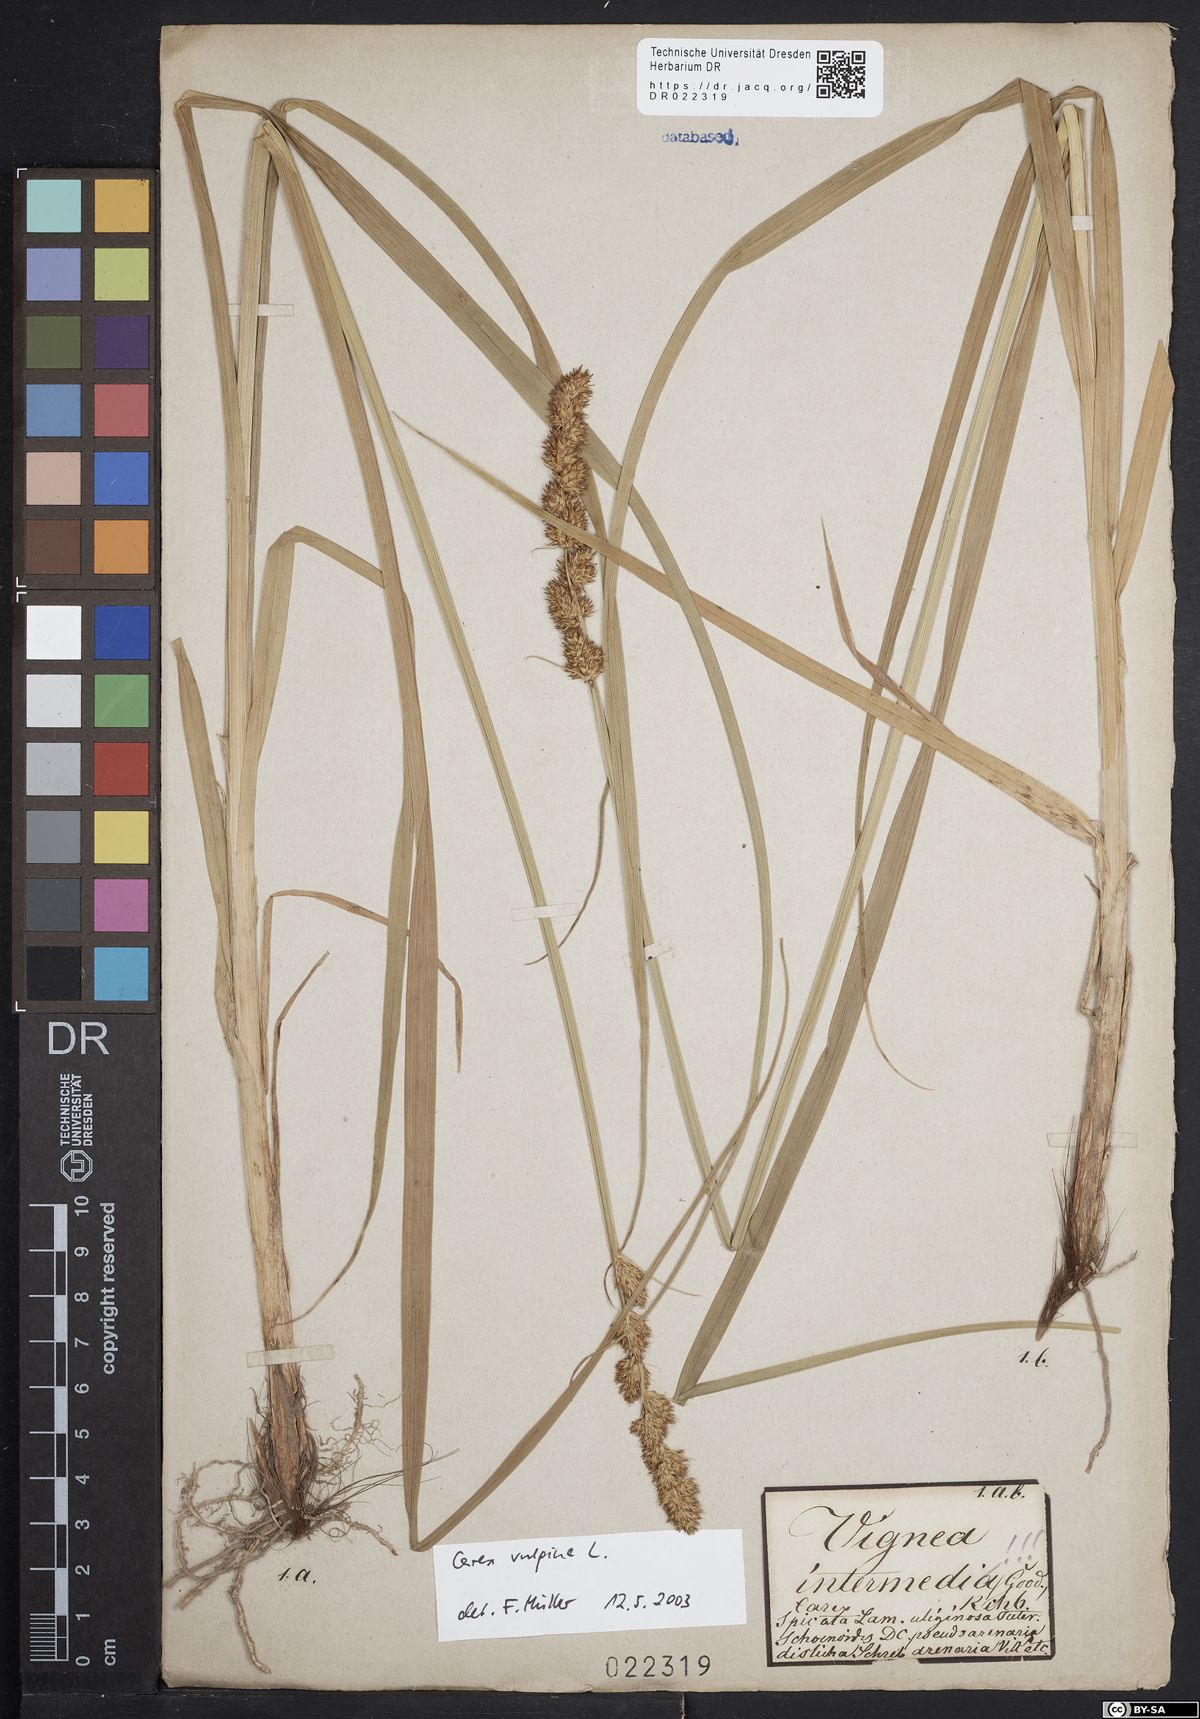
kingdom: Plantae
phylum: Tracheophyta
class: Liliopsida
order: Poales
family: Cyperaceae
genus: Carex
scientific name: Carex vulpina
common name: True fox-sedge
